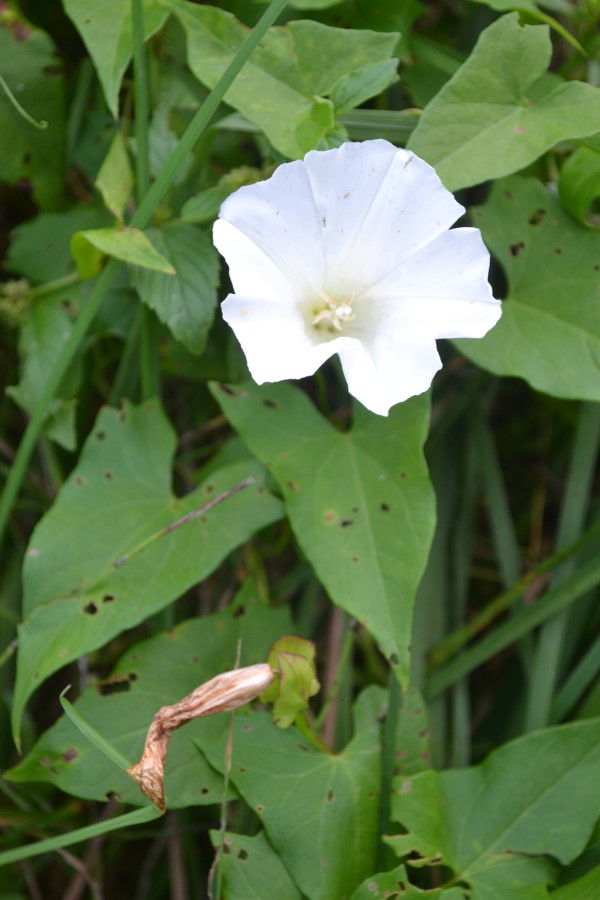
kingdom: Plantae
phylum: Tracheophyta
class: Magnoliopsida
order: Solanales
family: Convolvulaceae
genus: Calystegia
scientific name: Calystegia sepium
